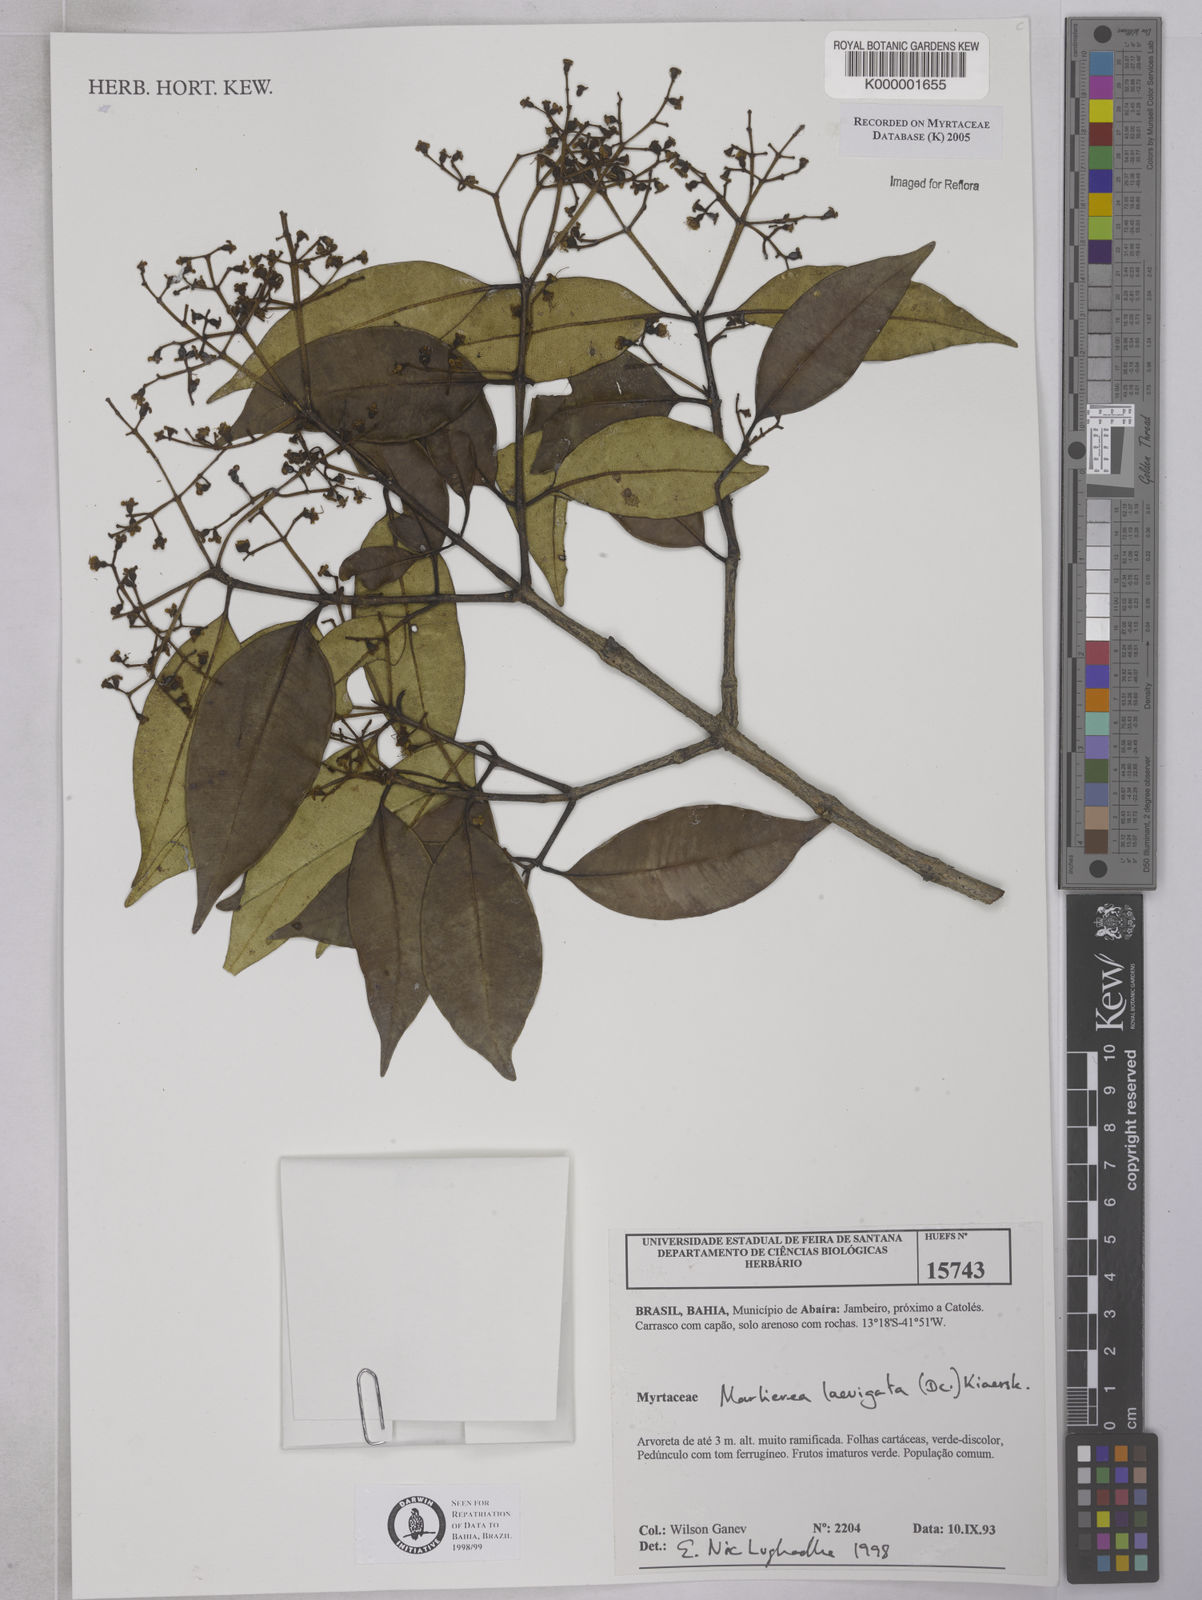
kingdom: Plantae
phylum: Tracheophyta
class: Magnoliopsida
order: Myrtales
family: Myrtaceae
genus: Myrcia
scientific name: Myrcia multipunctata
